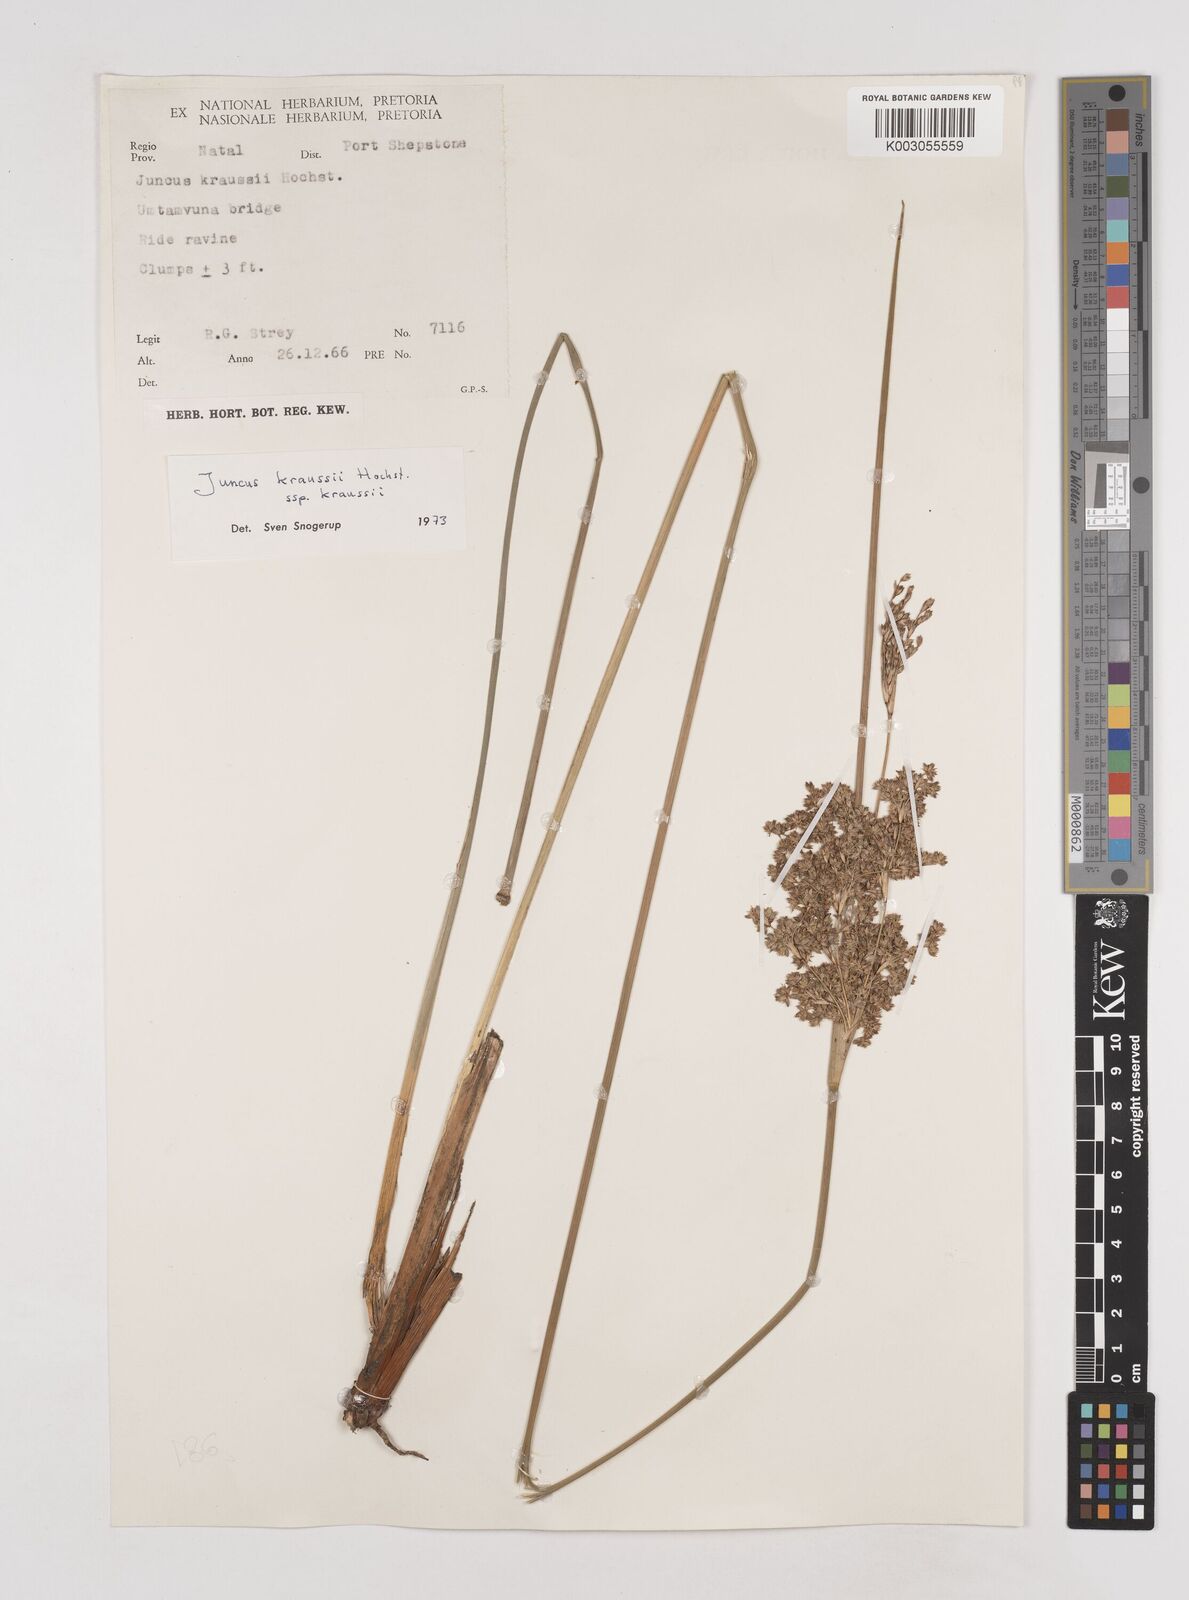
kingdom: Plantae
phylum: Tracheophyta
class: Liliopsida
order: Poales
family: Juncaceae
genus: Juncus
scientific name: Juncus kraussii
